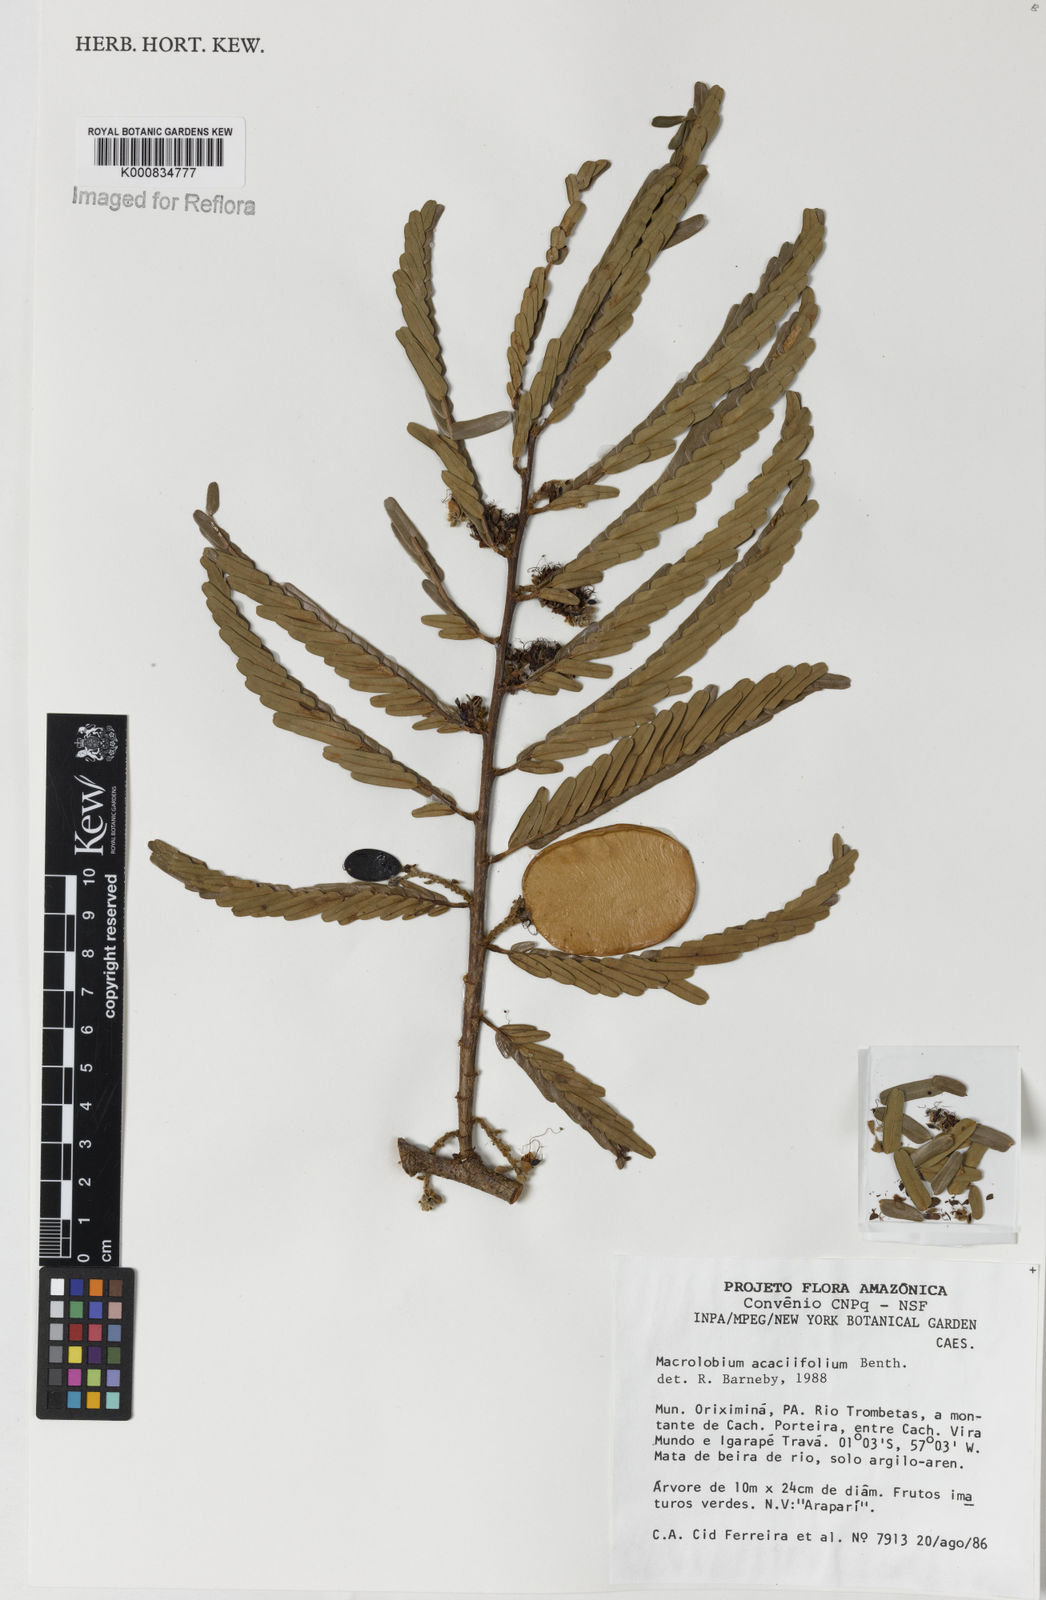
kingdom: Plantae
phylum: Tracheophyta
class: Magnoliopsida
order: Fabales
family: Fabaceae
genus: Macrolobium
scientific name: Macrolobium acaciifolium
